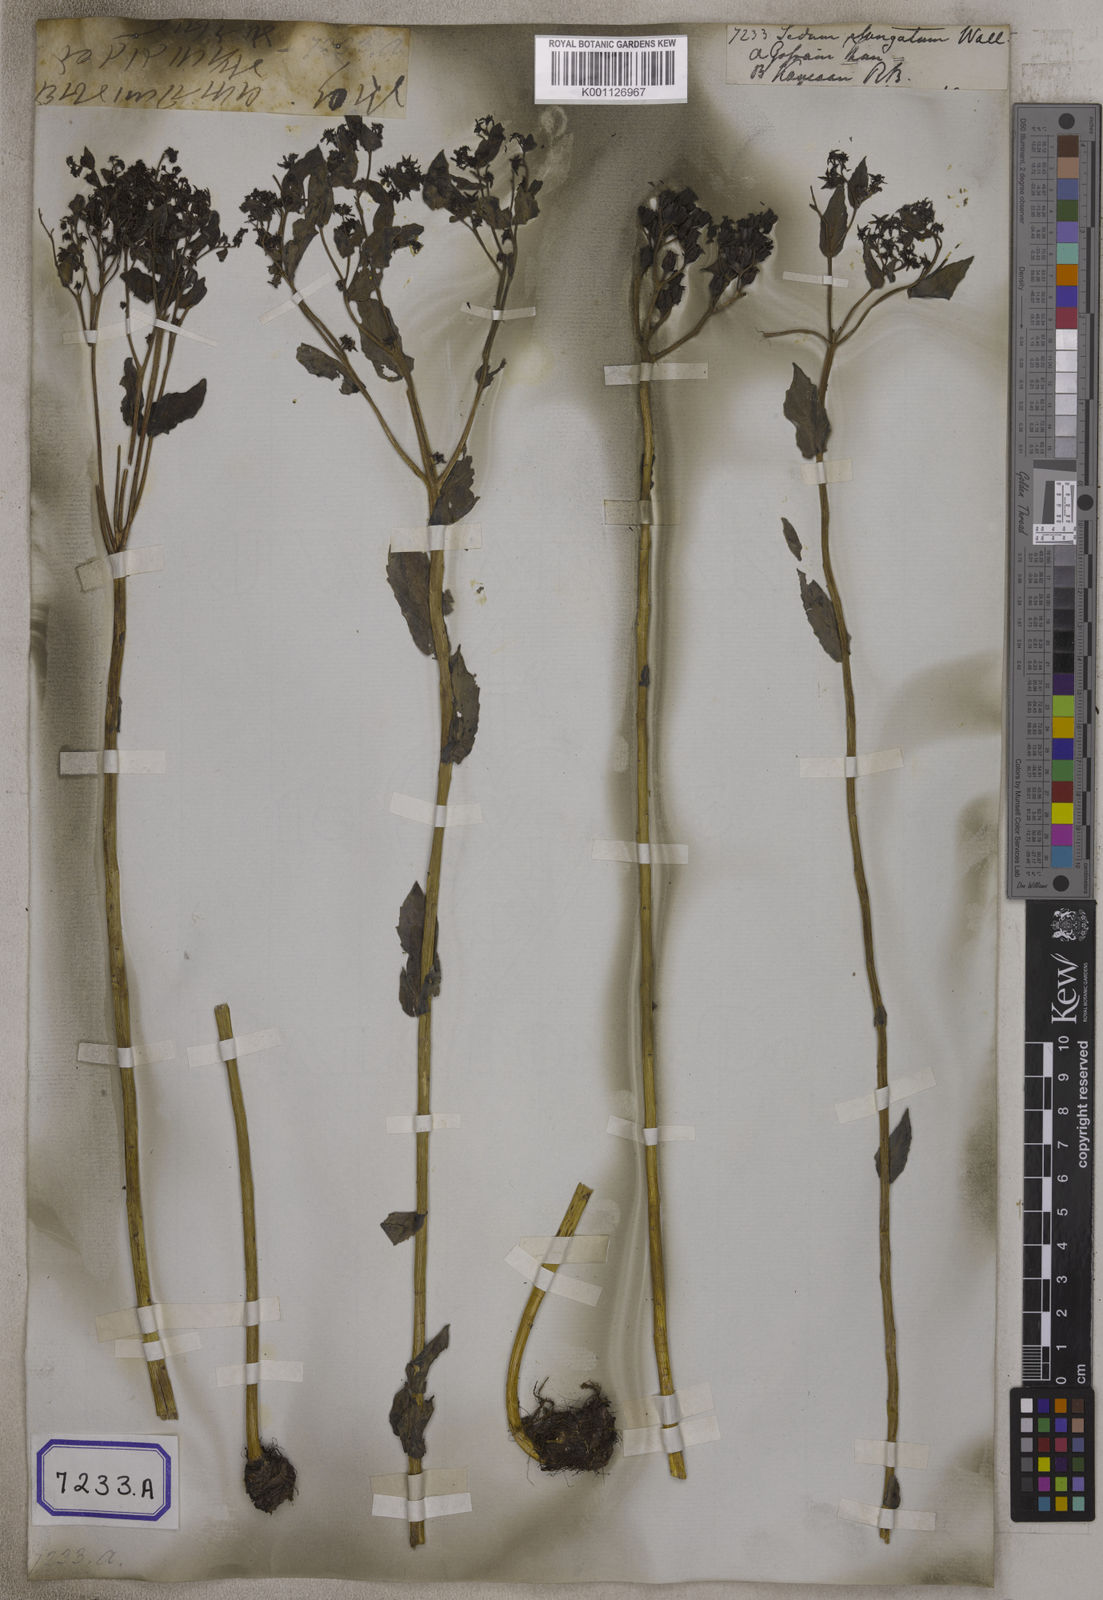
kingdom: Plantae
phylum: Tracheophyta
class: Magnoliopsida
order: Saxifragales
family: Crassulaceae
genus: Sedum
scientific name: Sedum
